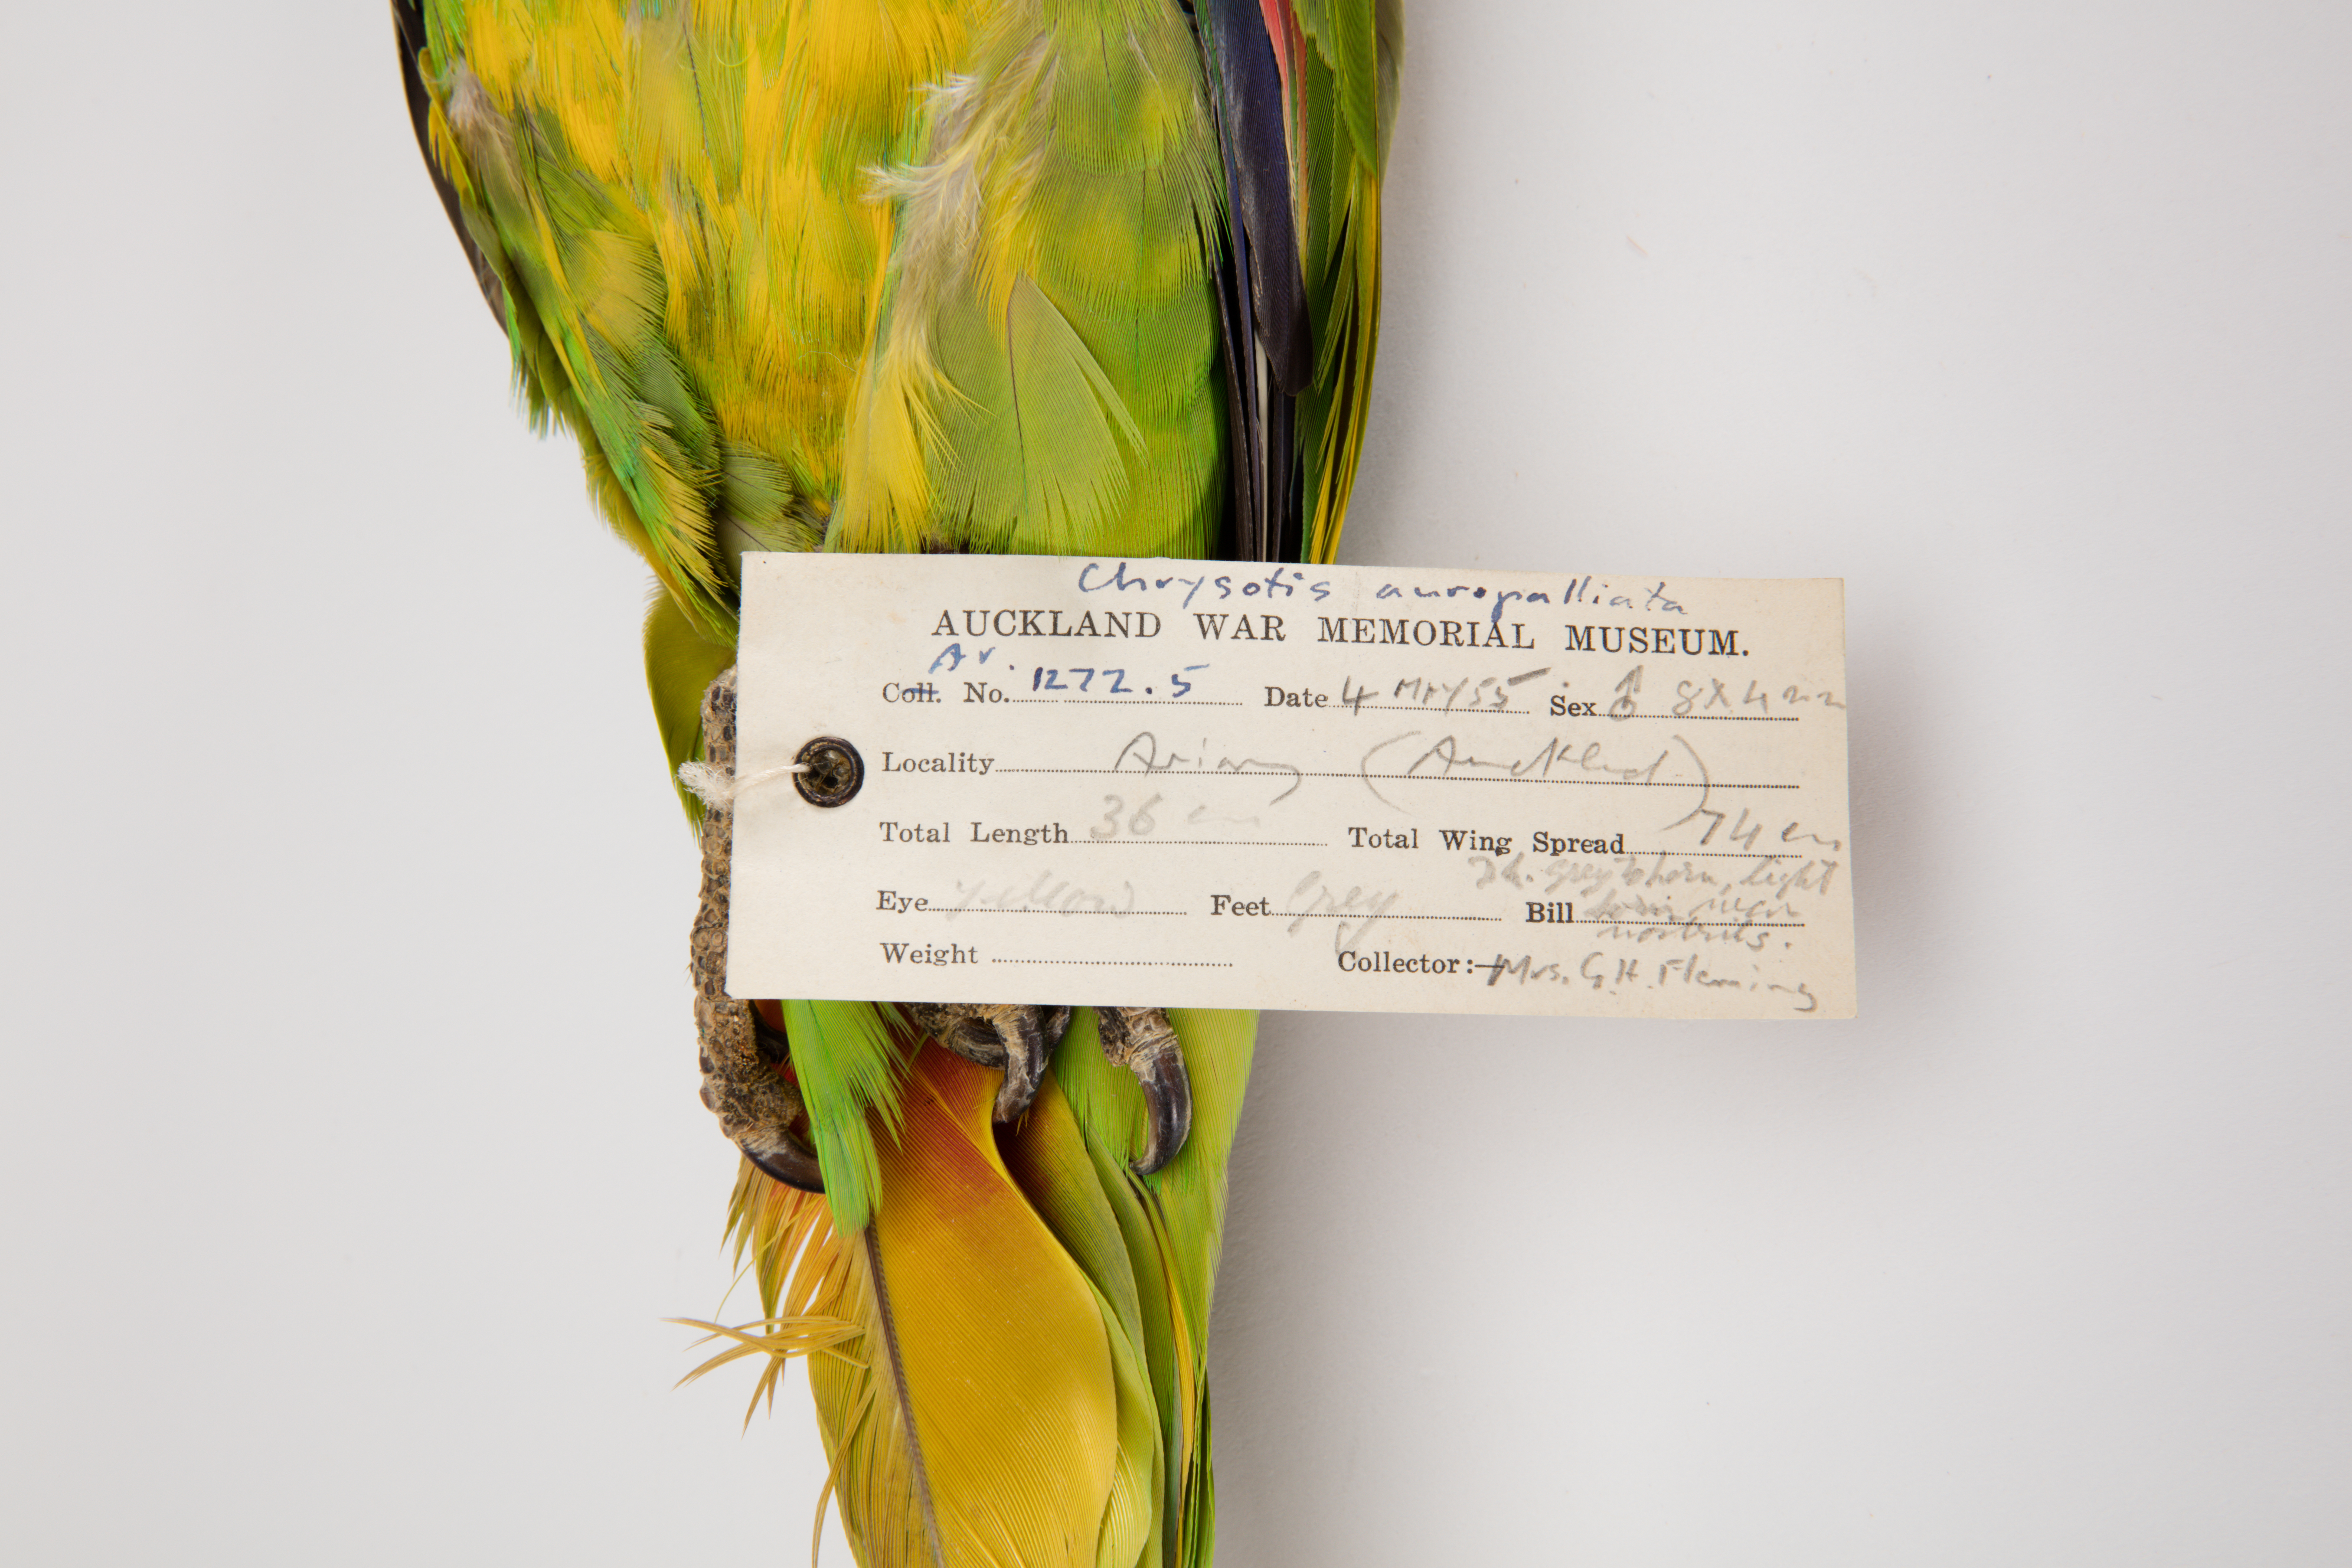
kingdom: Animalia
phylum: Chordata
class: Aves
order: Psittaciformes
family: Psittacidae
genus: Amazona
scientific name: Amazona auropalliata
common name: Yellow-naped amazon
